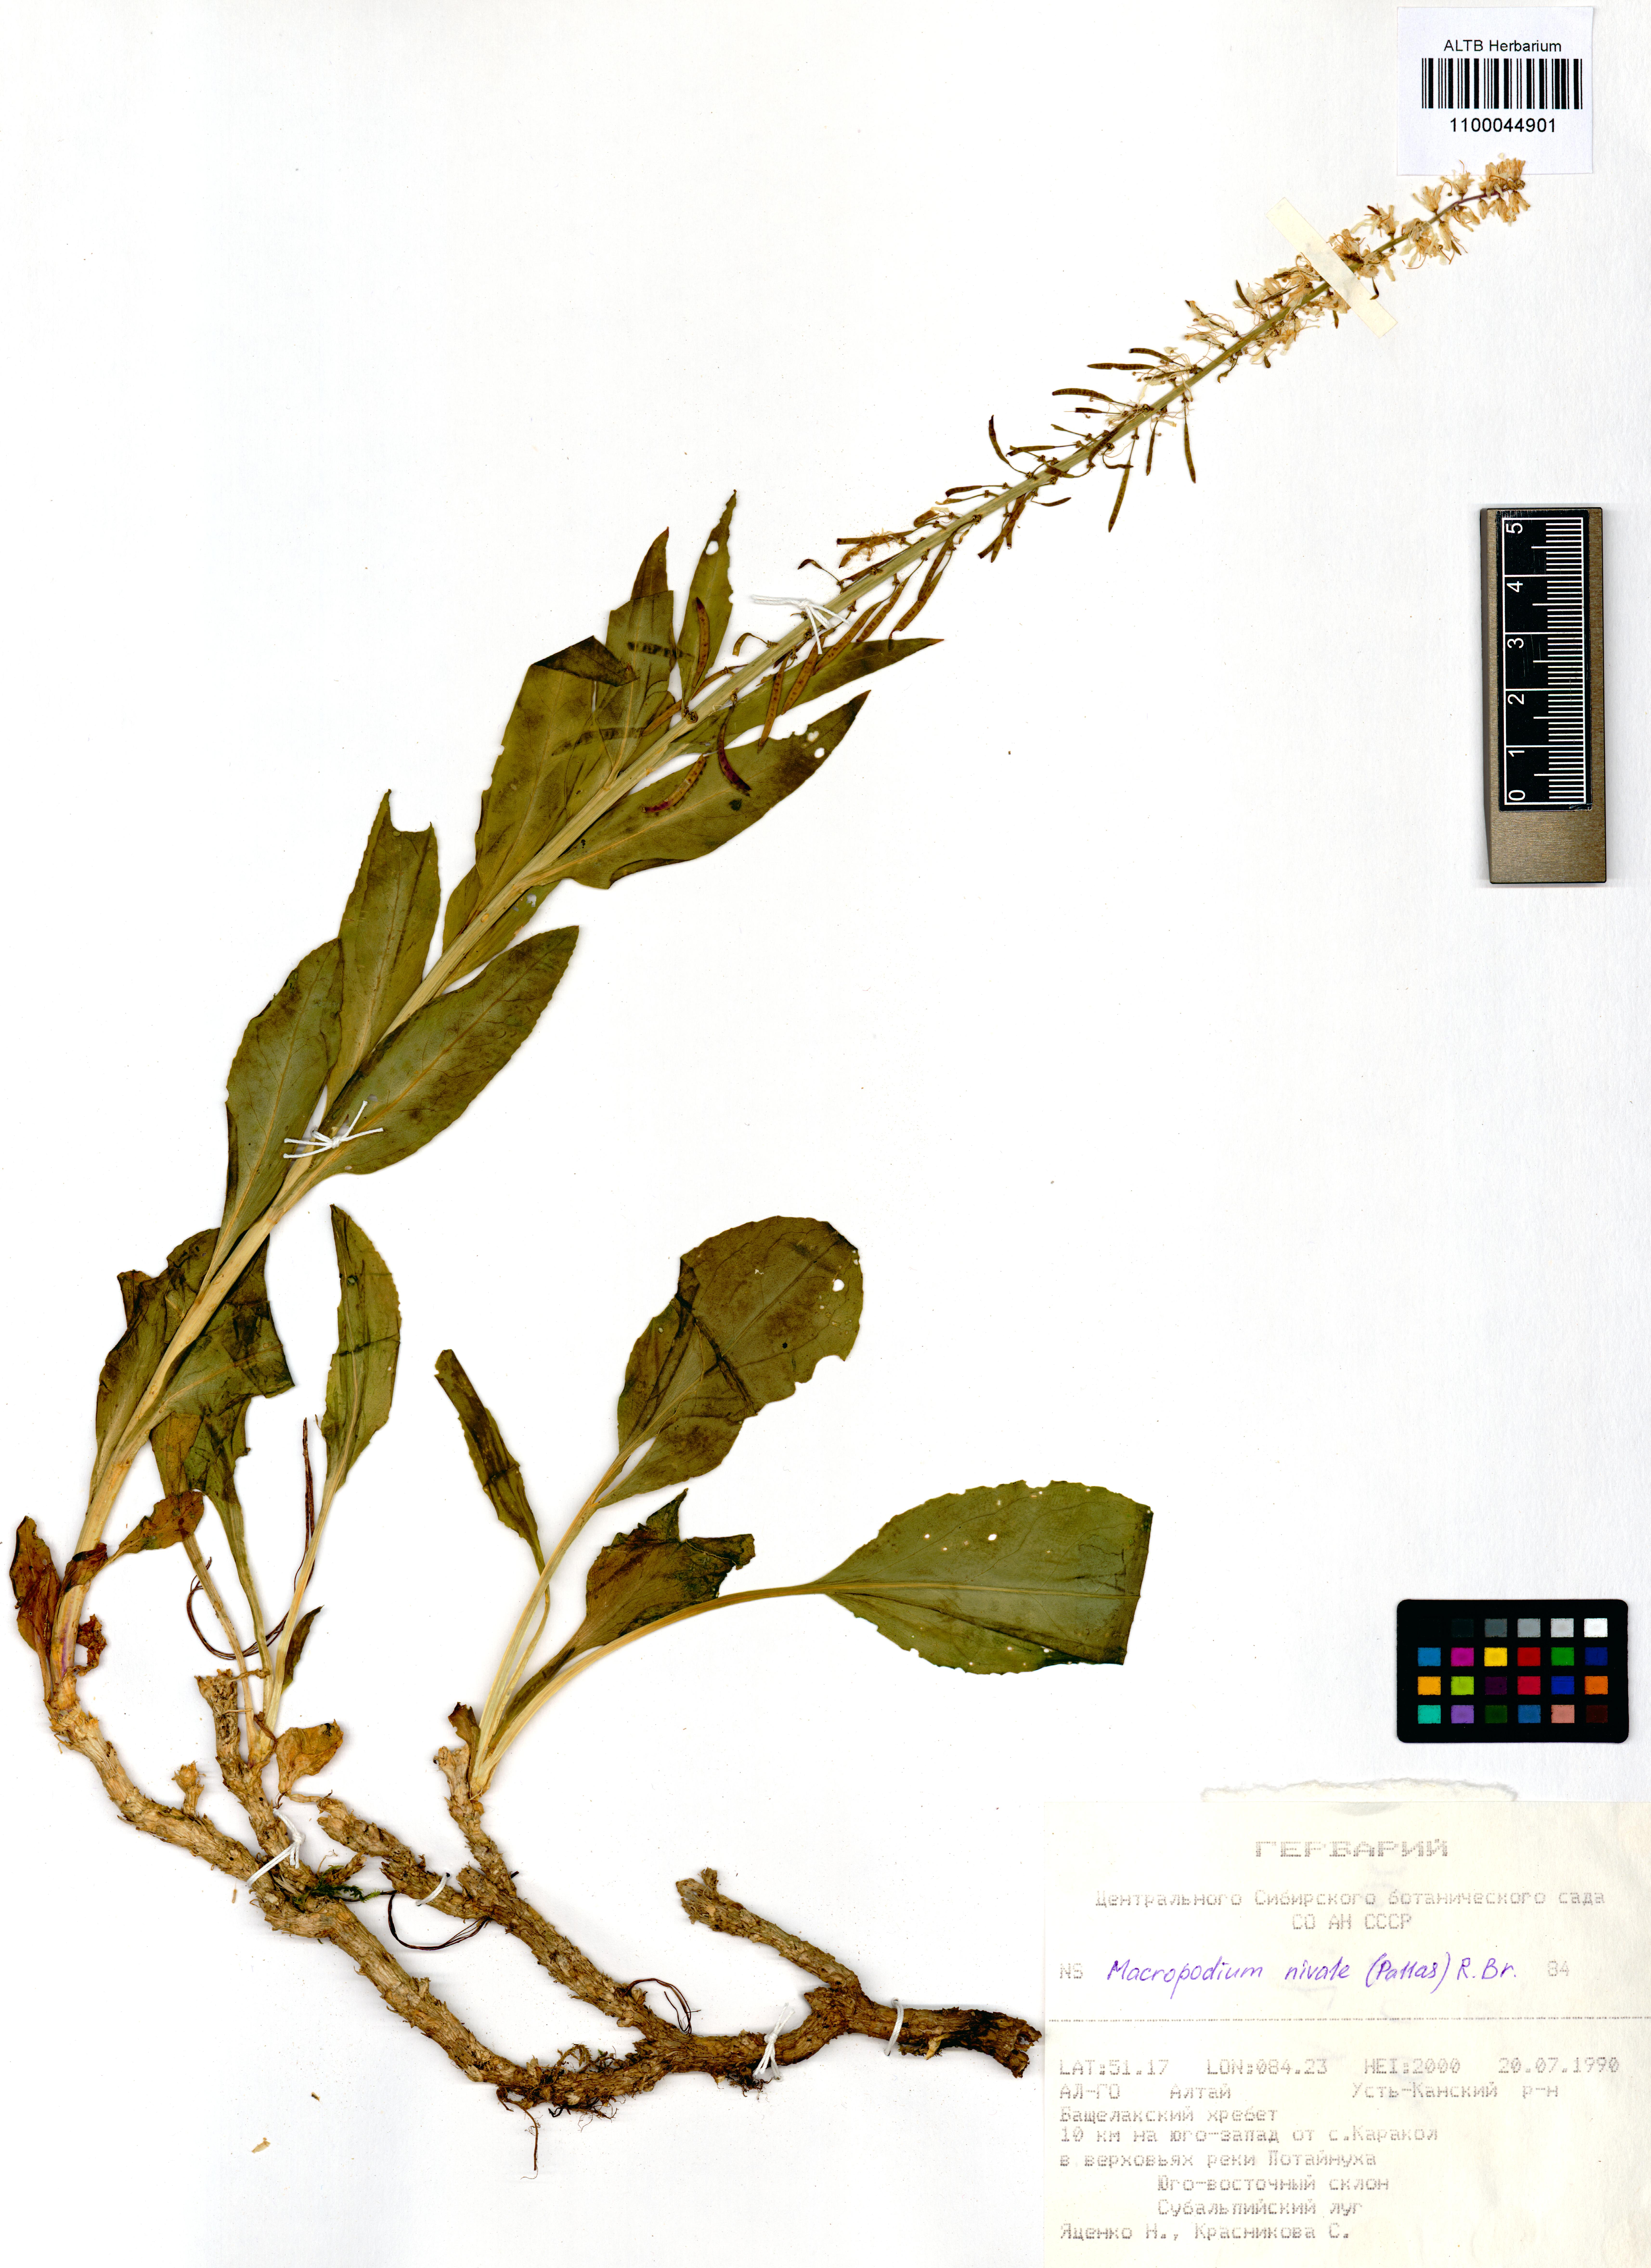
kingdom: Plantae
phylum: Tracheophyta
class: Magnoliopsida
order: Brassicales
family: Brassicaceae
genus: Macropodium
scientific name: Macropodium nivale
